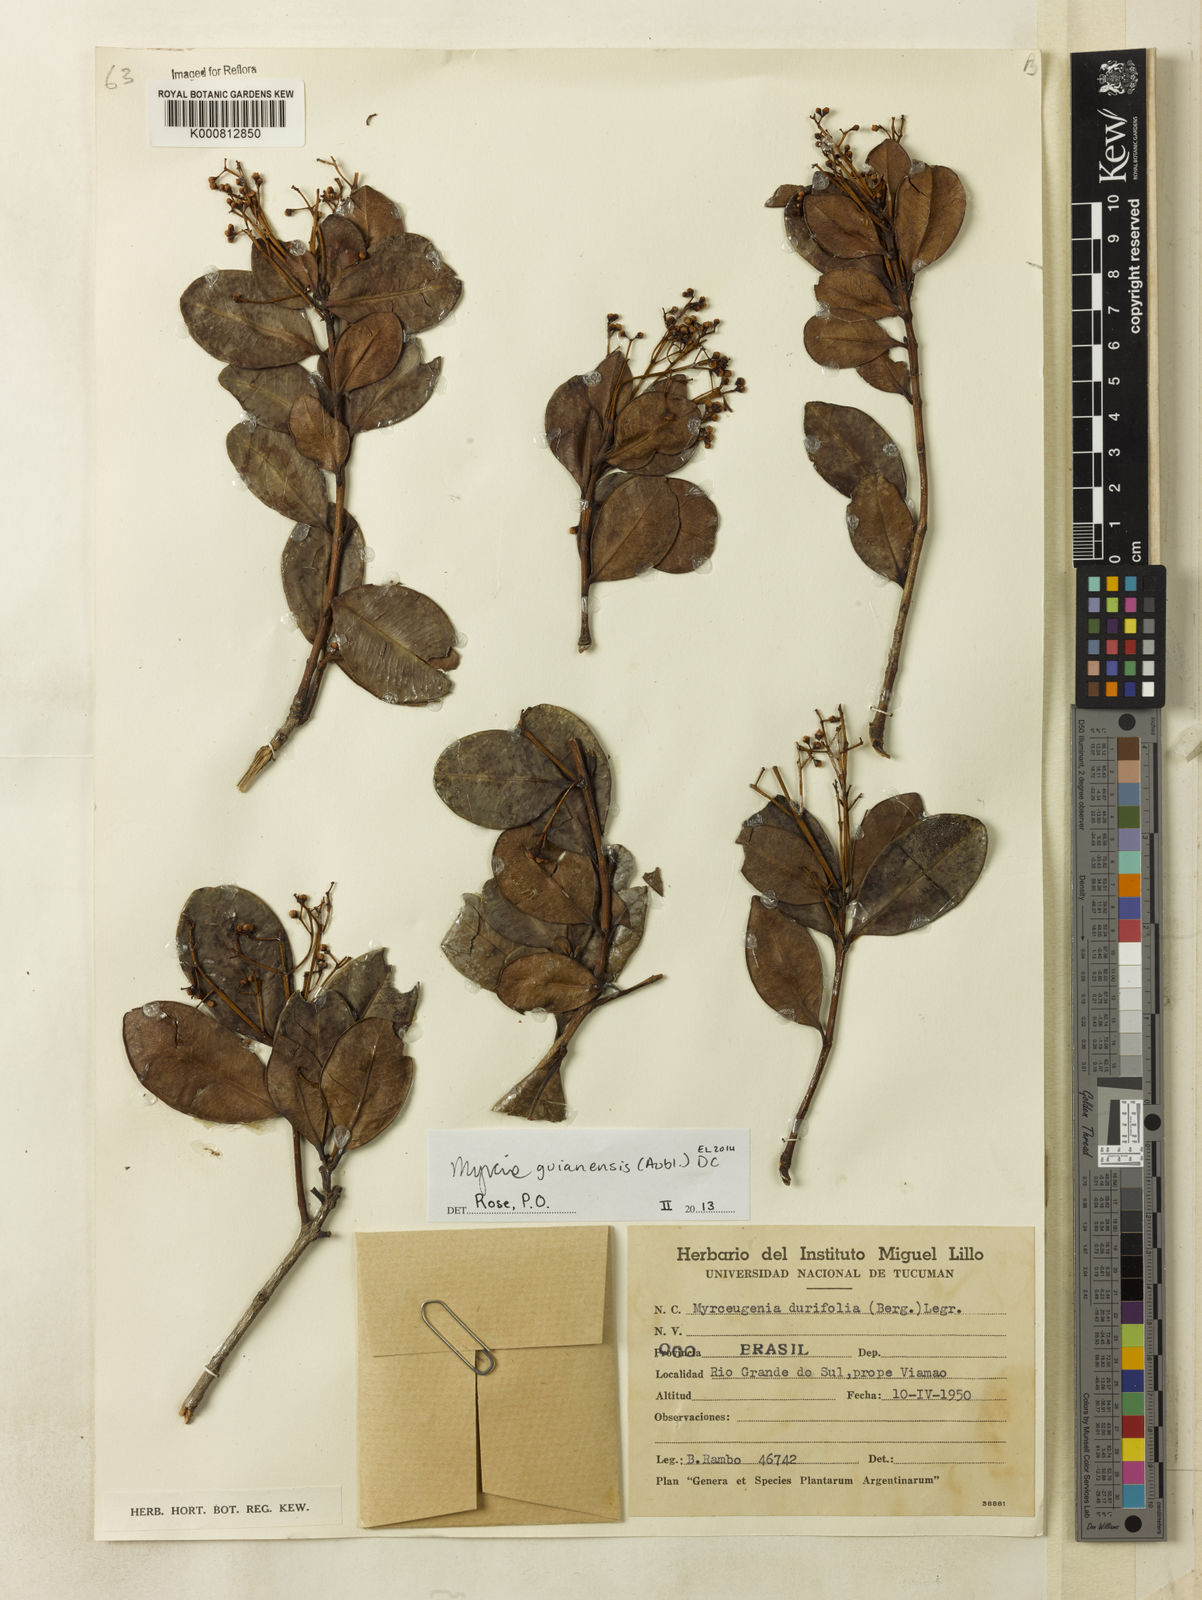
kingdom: Plantae
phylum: Tracheophyta
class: Magnoliopsida
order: Myrtales
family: Myrtaceae
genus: Myrcia
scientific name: Myrcia glabra
